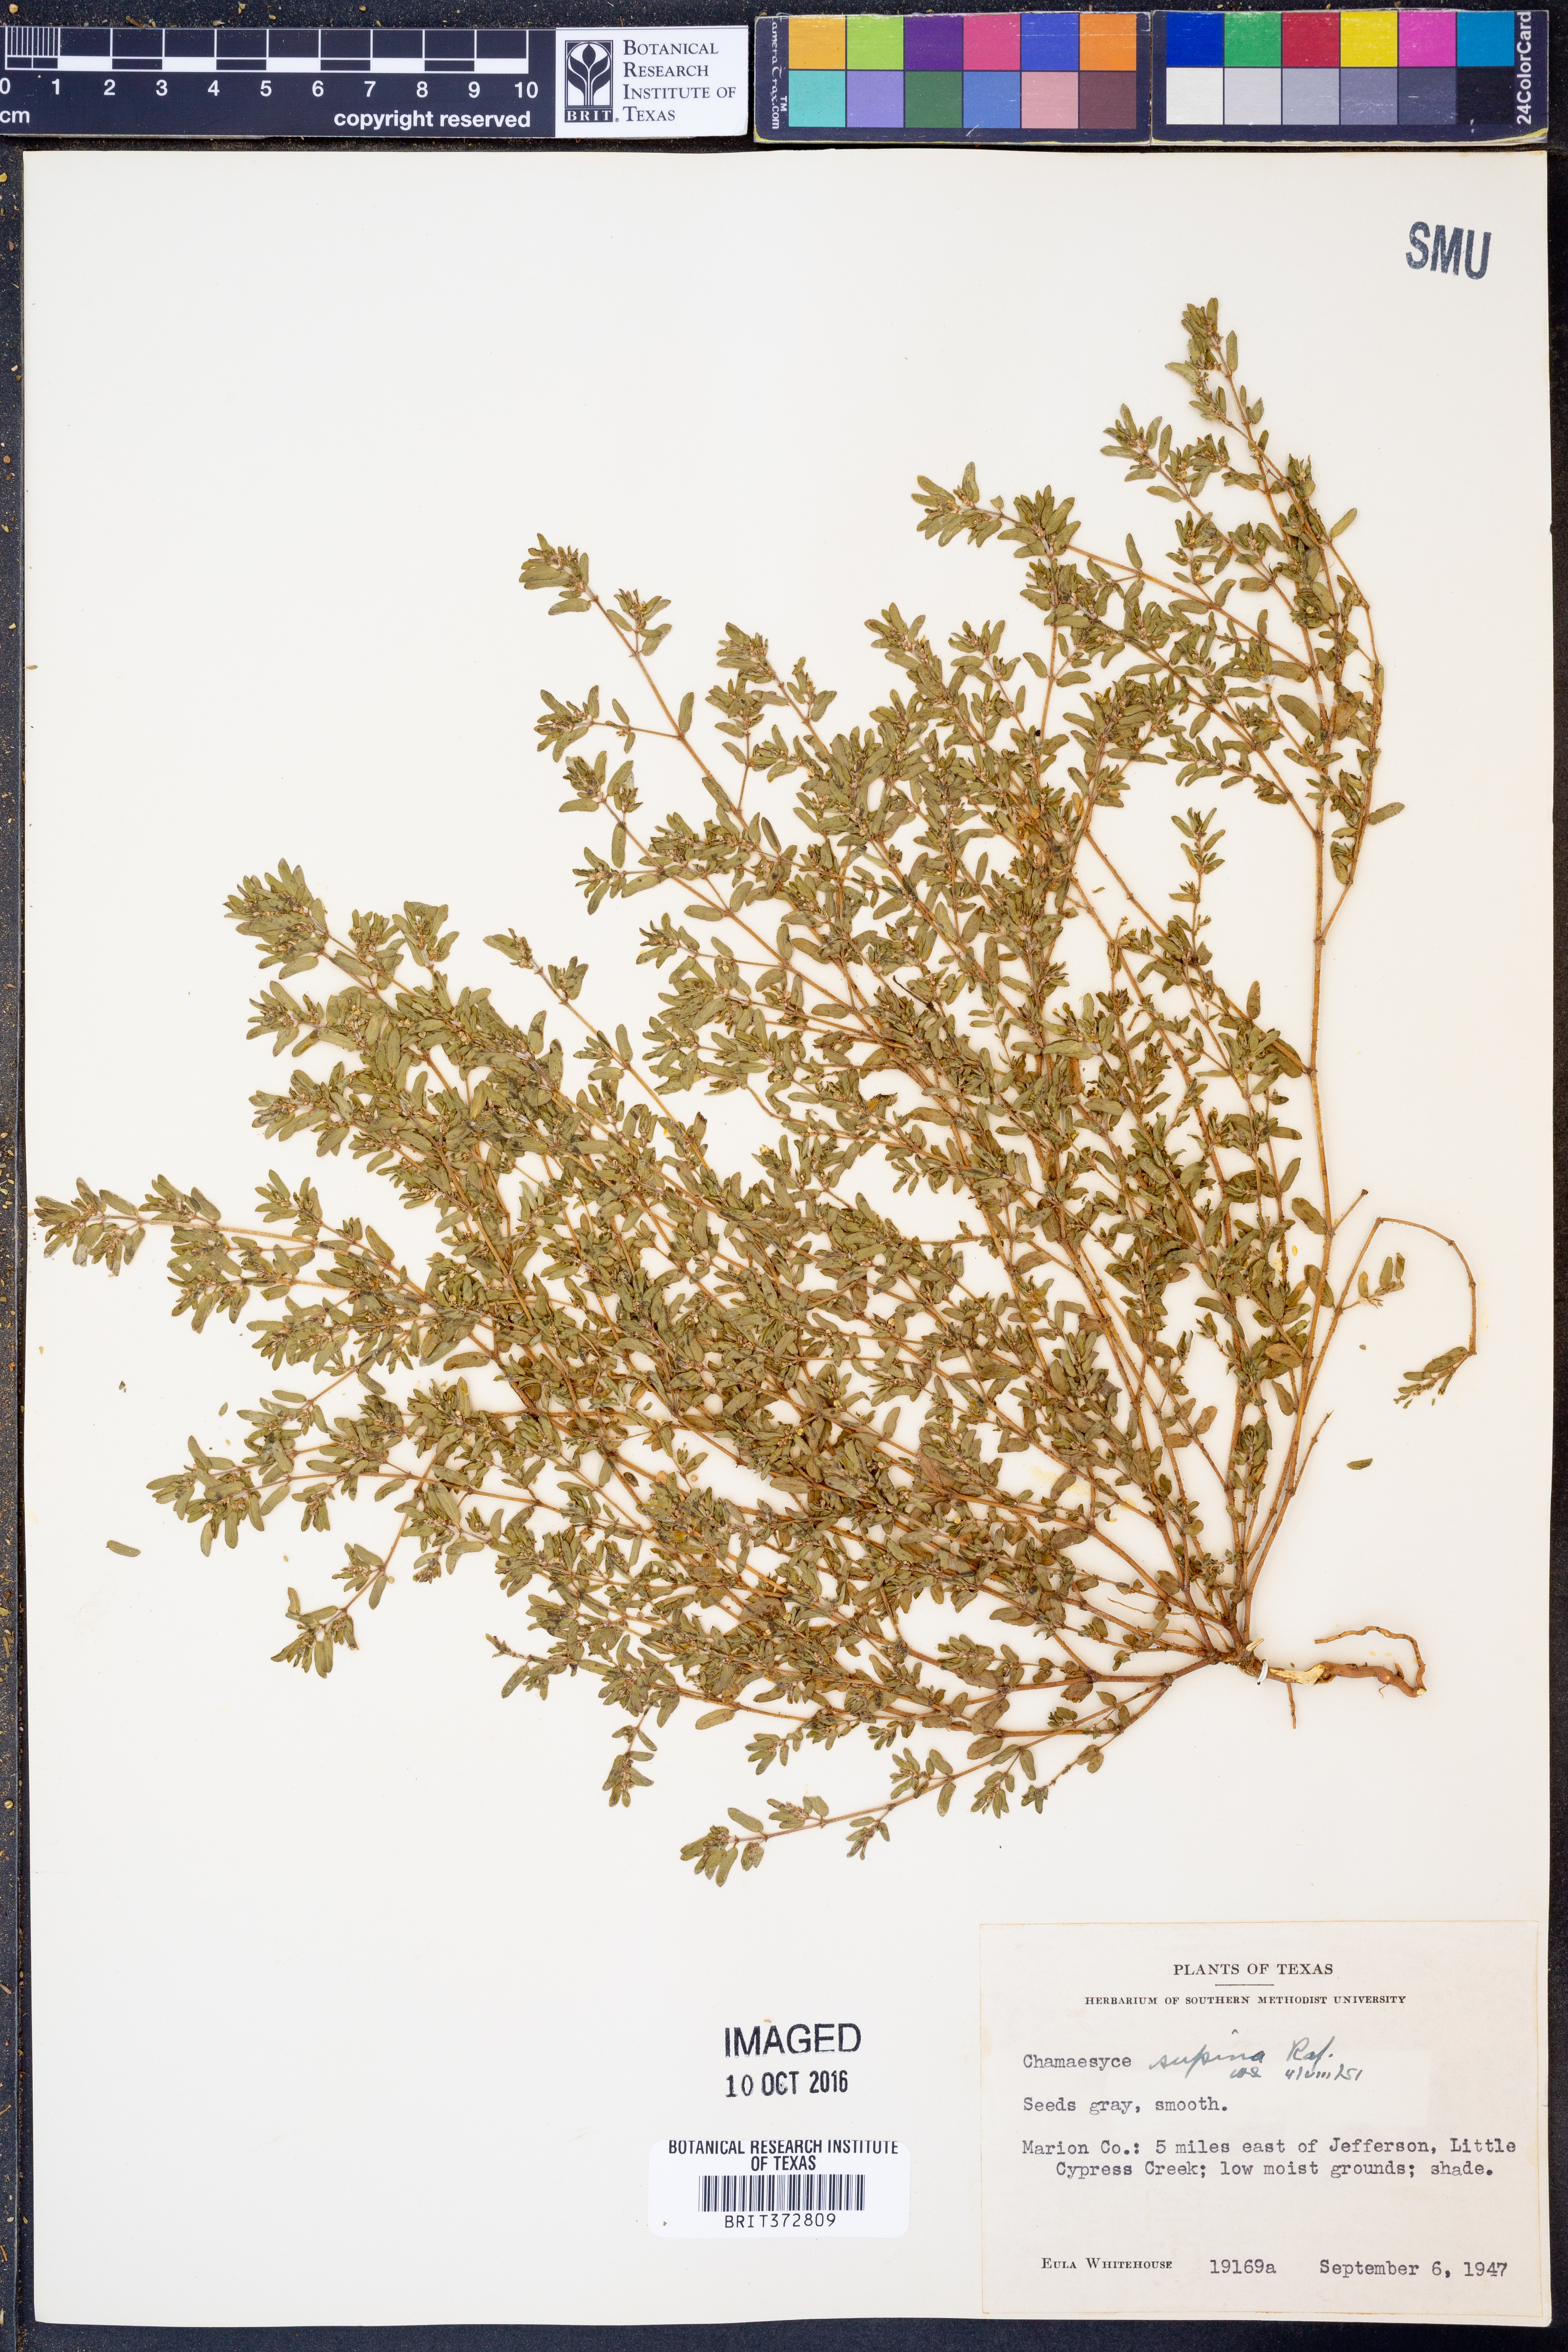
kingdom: Plantae
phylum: Tracheophyta
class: Magnoliopsida
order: Malpighiales
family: Euphorbiaceae
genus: Euphorbia
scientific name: Euphorbia maculata
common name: Spotted spurge
